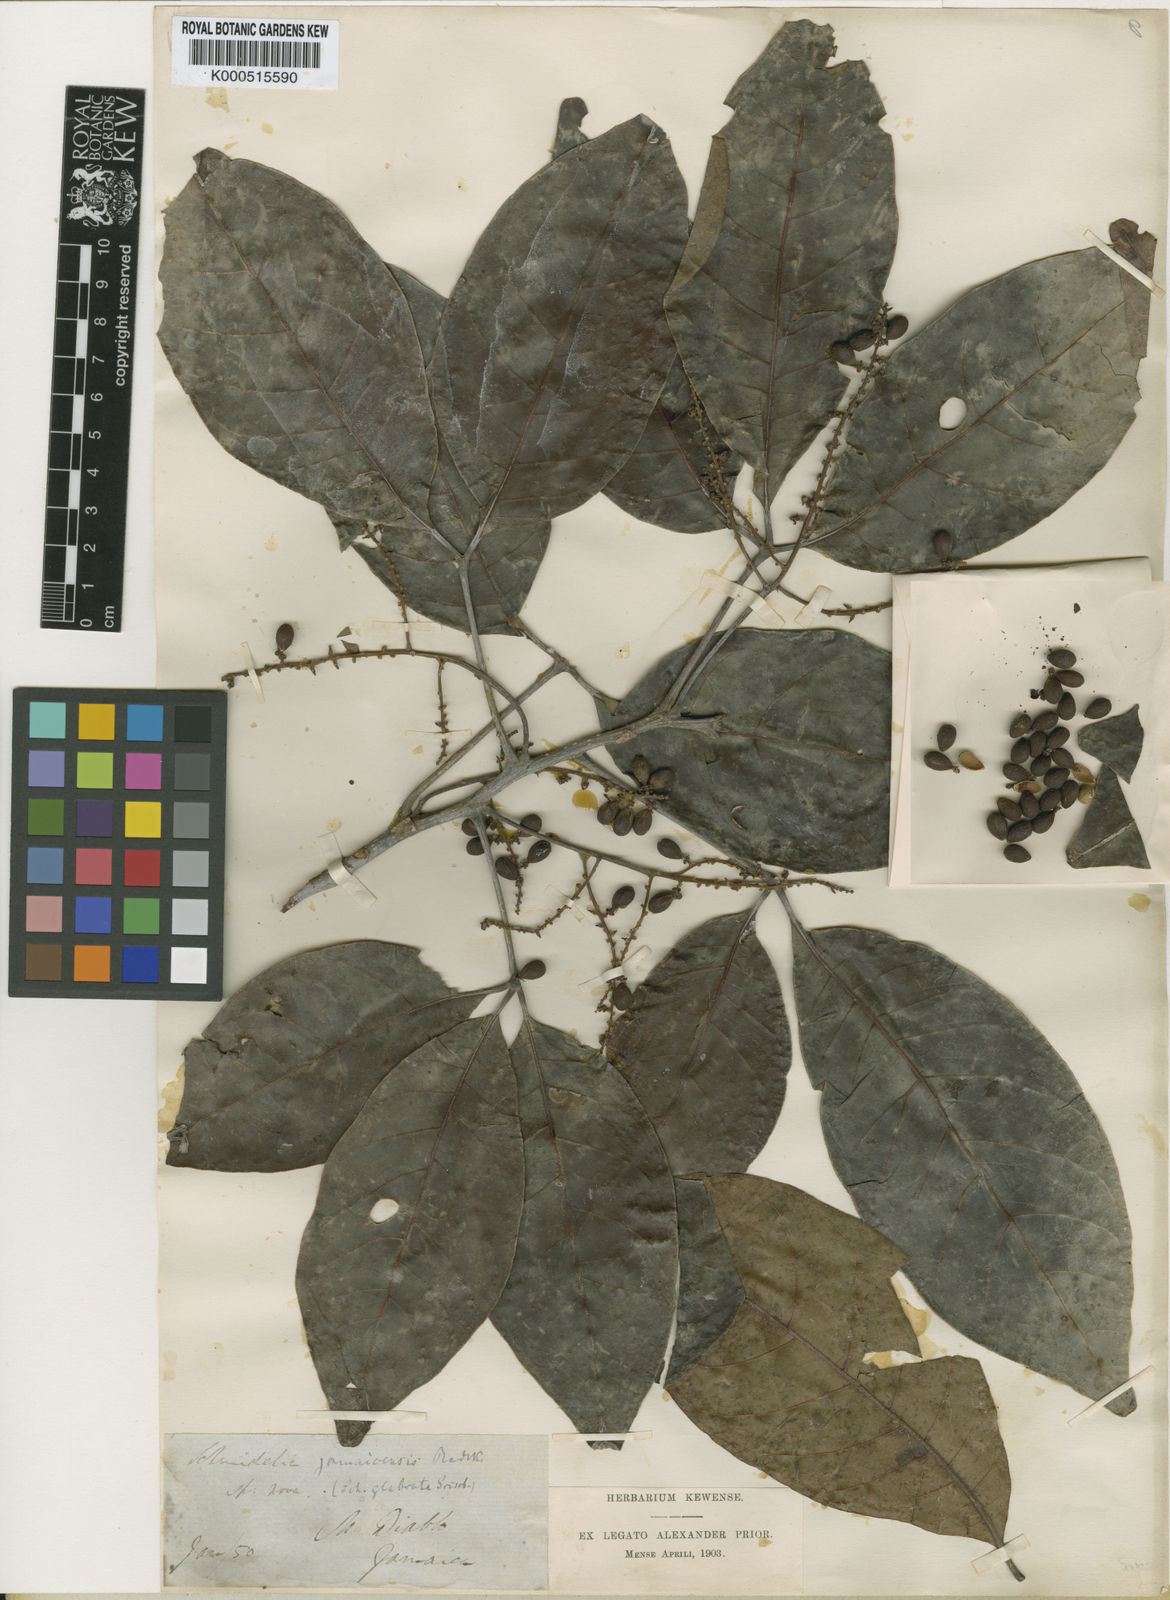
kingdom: Plantae
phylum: Tracheophyta
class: Magnoliopsida
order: Sapindales
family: Sapindaceae
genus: Allophylus
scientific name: Allophylus jamaicensis
